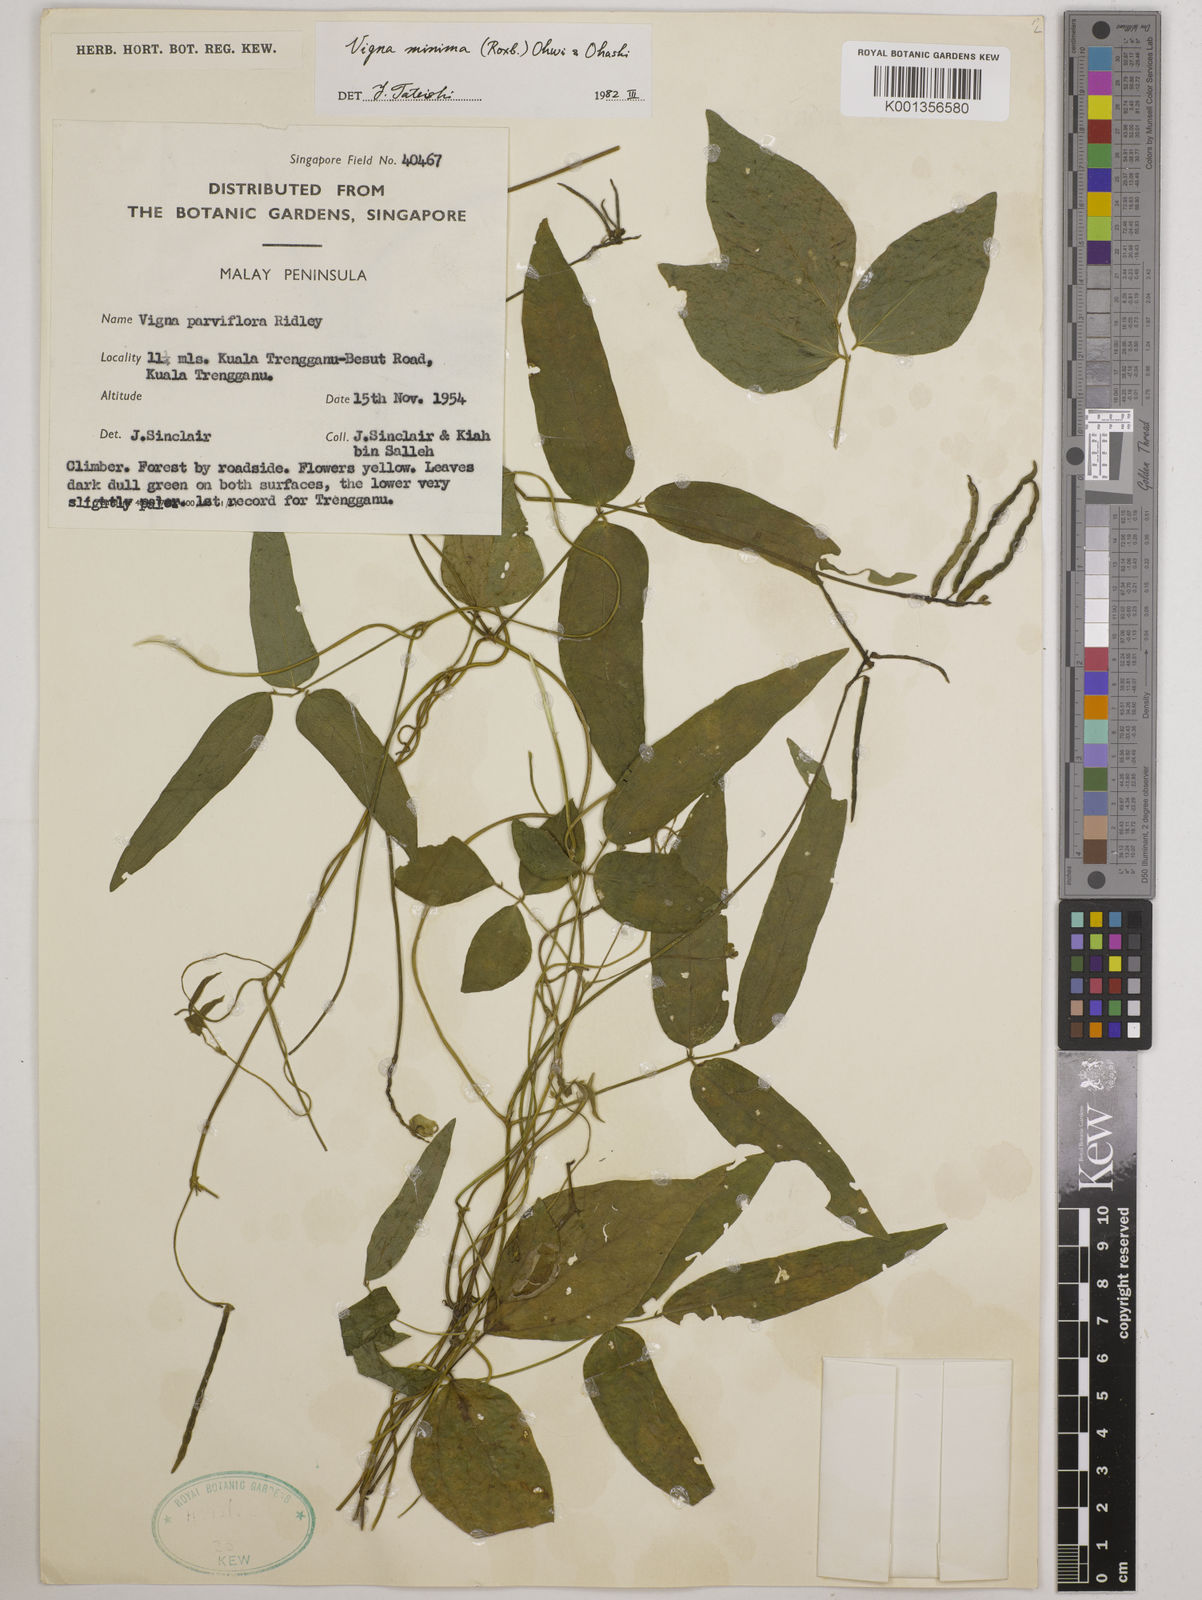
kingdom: Plantae
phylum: Tracheophyta
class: Magnoliopsida
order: Fabales
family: Fabaceae
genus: Vigna
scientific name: Vigna minima
